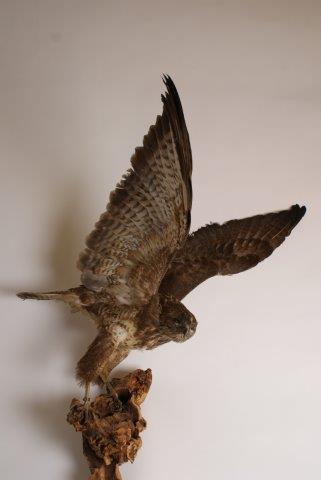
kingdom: Animalia
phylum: Chordata
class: Aves
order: Accipitriformes
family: Accipitridae
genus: Buteo
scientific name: Buteo buteo
